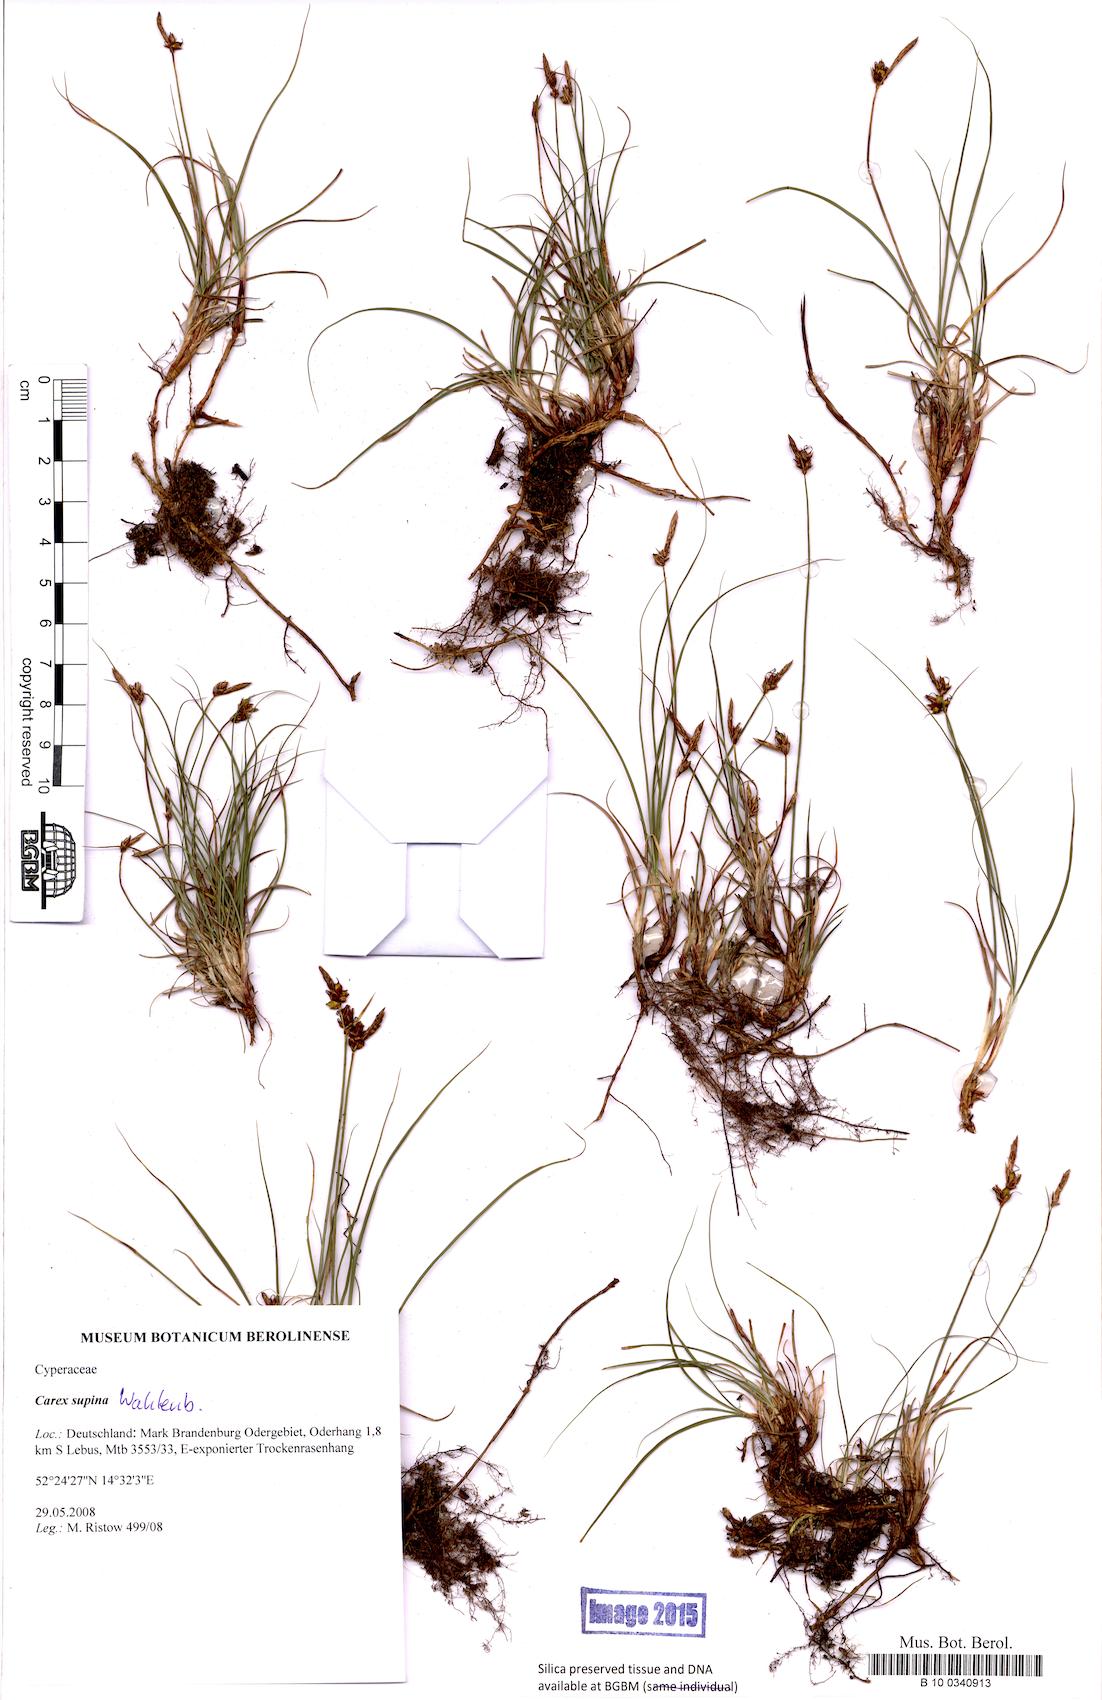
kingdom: Plantae
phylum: Tracheophyta
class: Liliopsida
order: Poales
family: Cyperaceae
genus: Carex
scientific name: Carex supina
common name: Lying-back sedge
